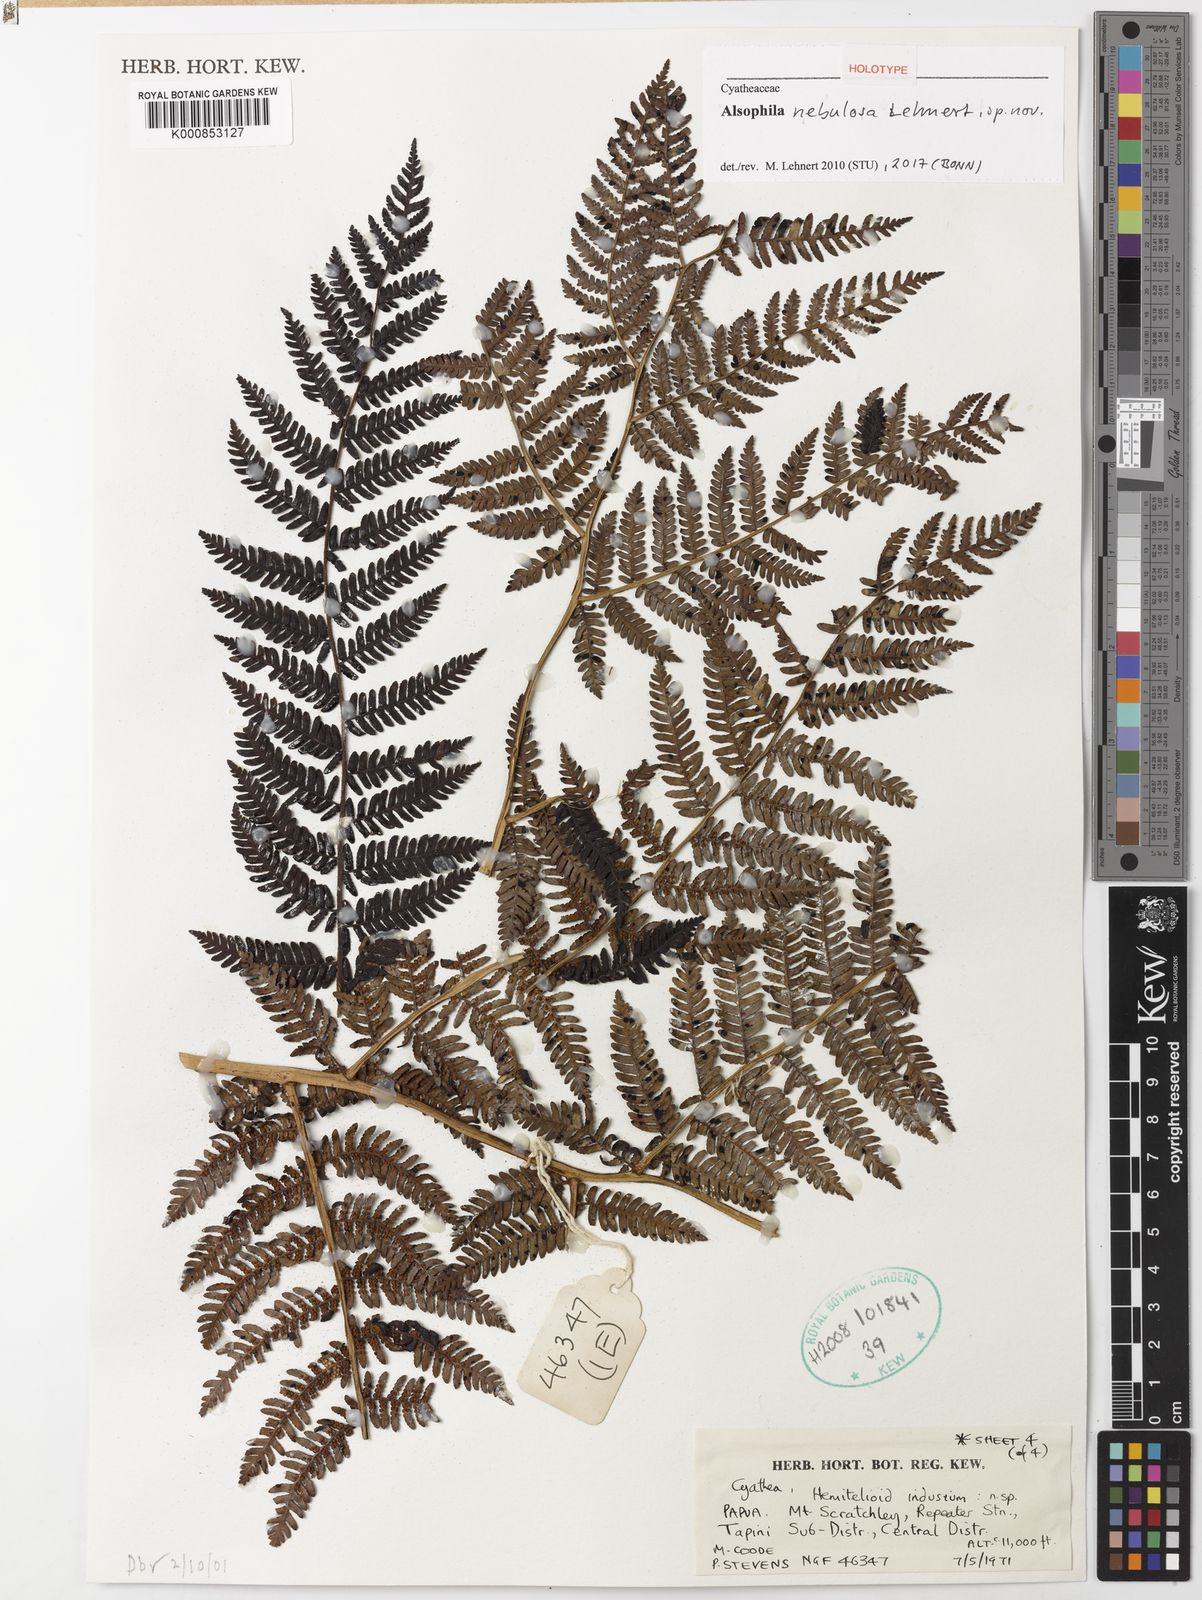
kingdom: Plantae
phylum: Tracheophyta
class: Polypodiopsida
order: Cyatheales
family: Cyatheaceae
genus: Alsophila
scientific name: Alsophila nebulosa
